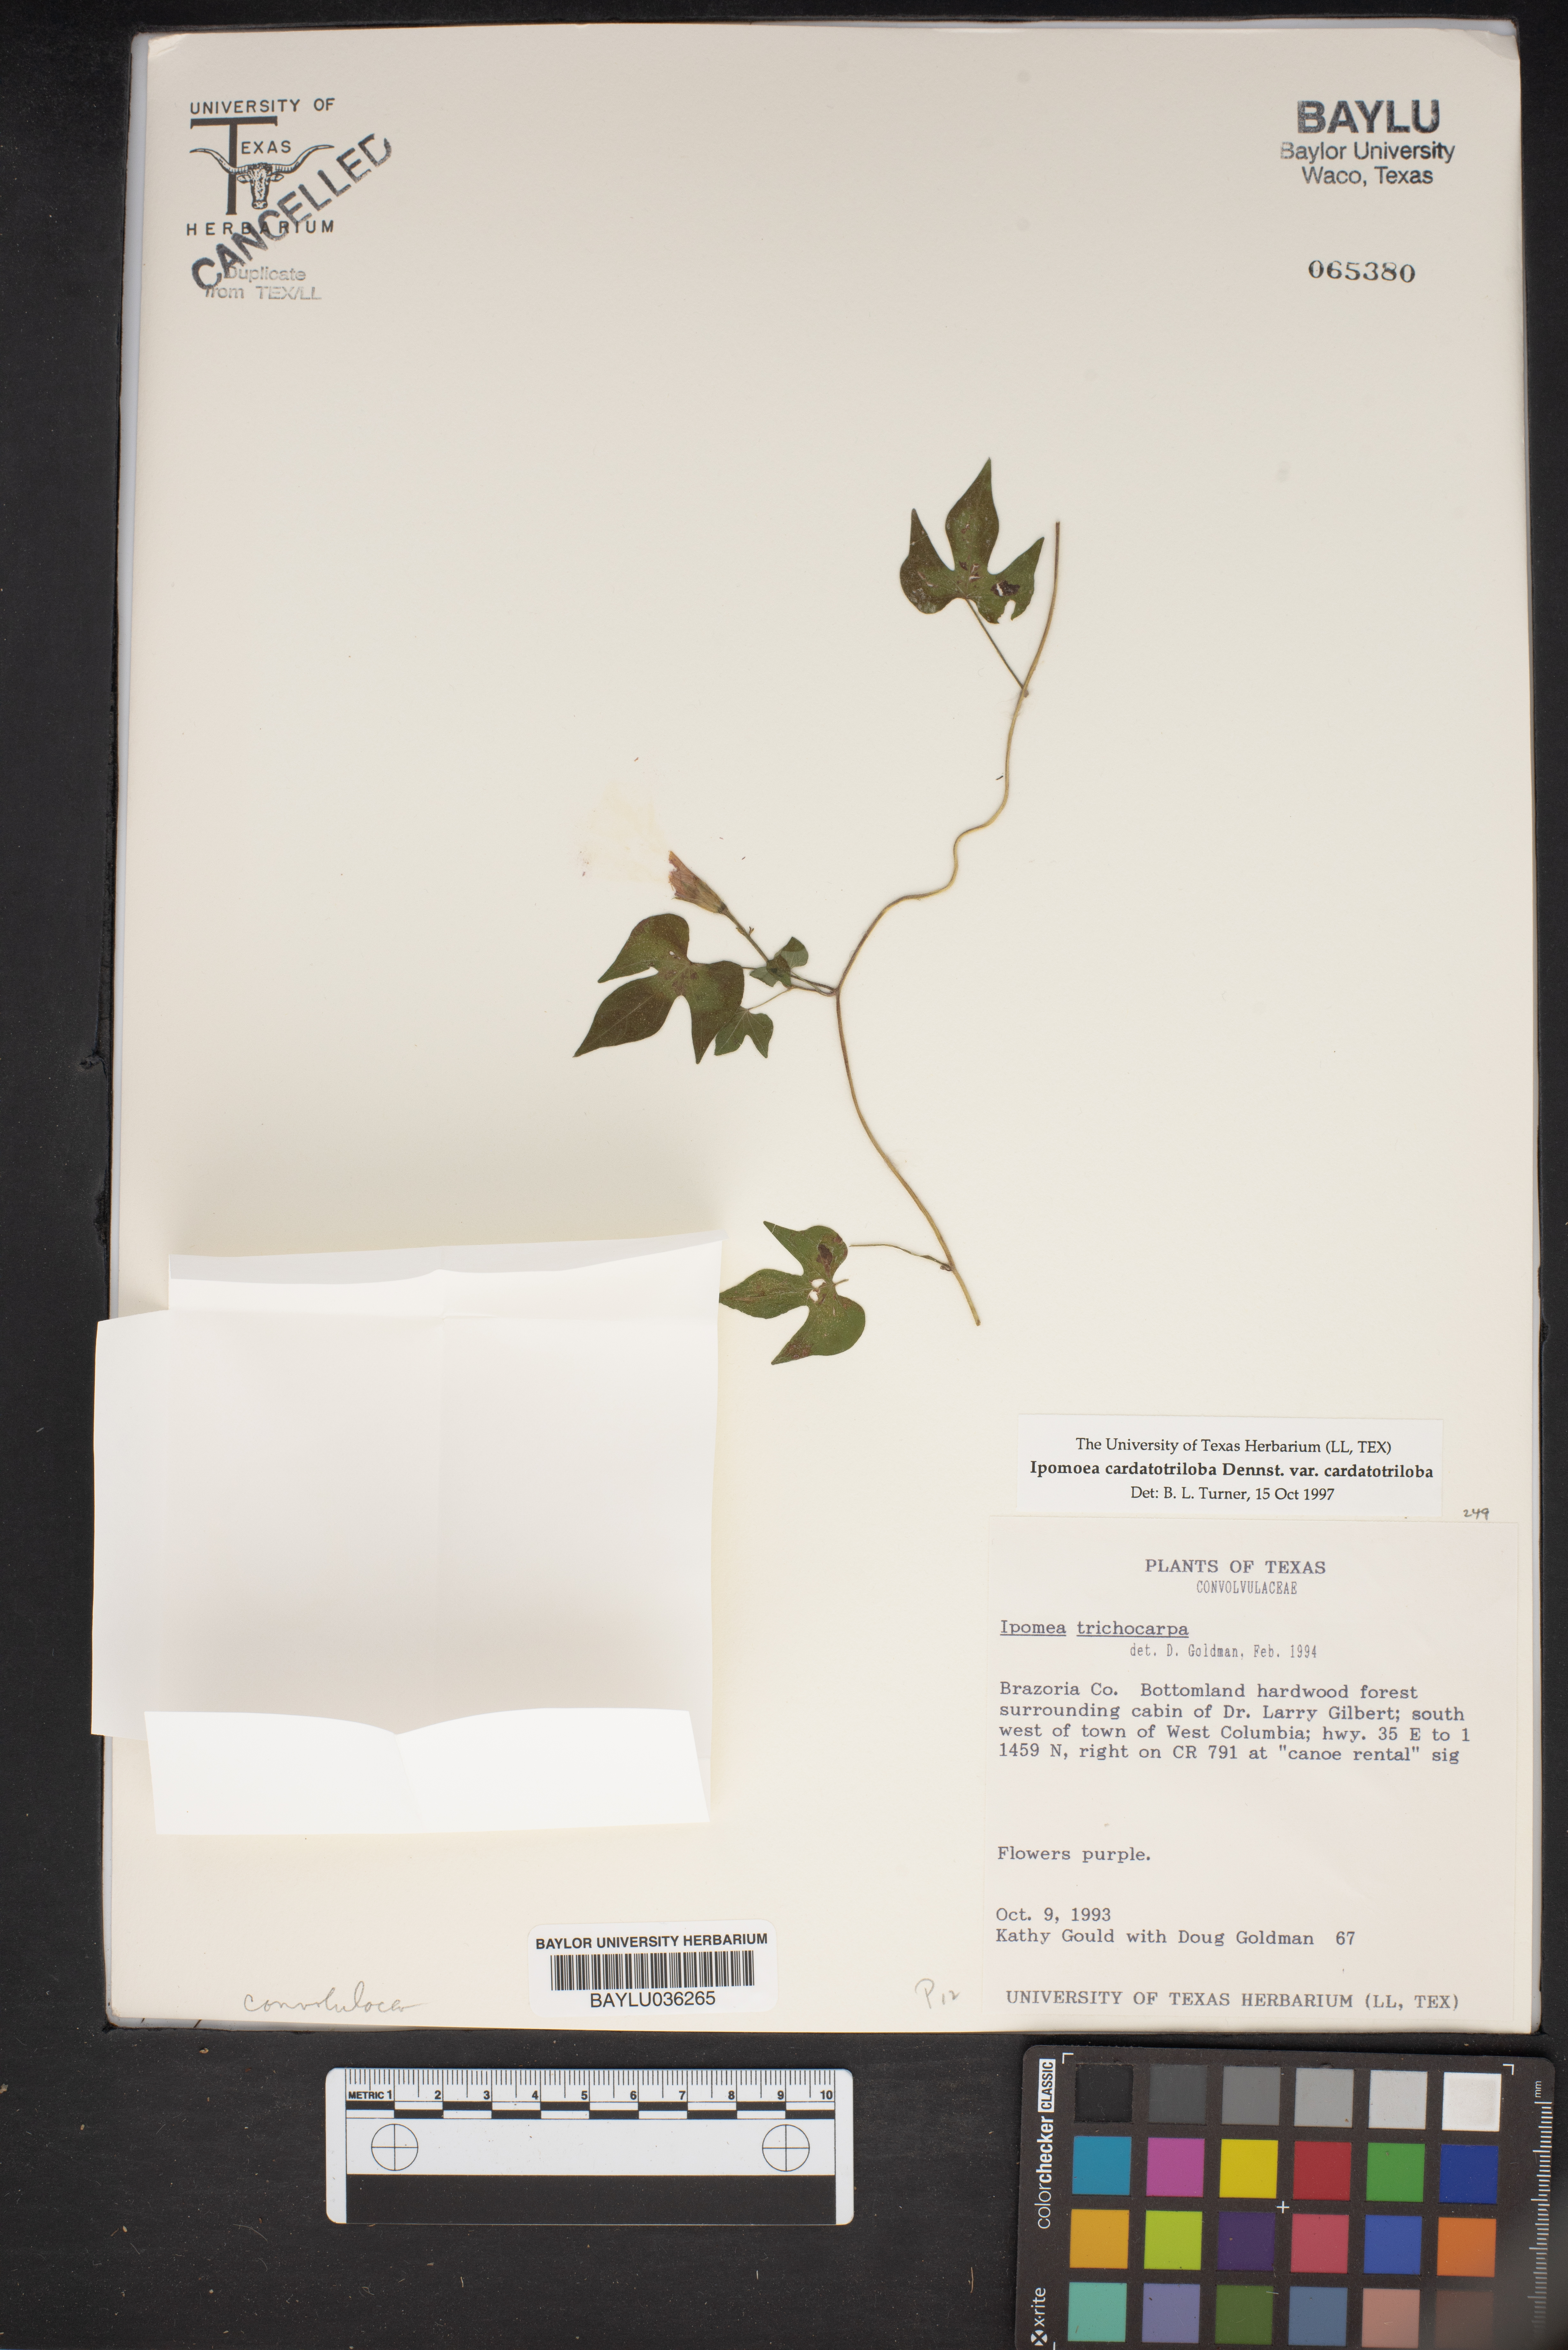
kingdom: Plantae
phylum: Tracheophyta
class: Magnoliopsida
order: Solanales
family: Convolvulaceae
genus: Ipomoea
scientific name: Ipomoea cordatotriloba
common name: Cotton morning glory
